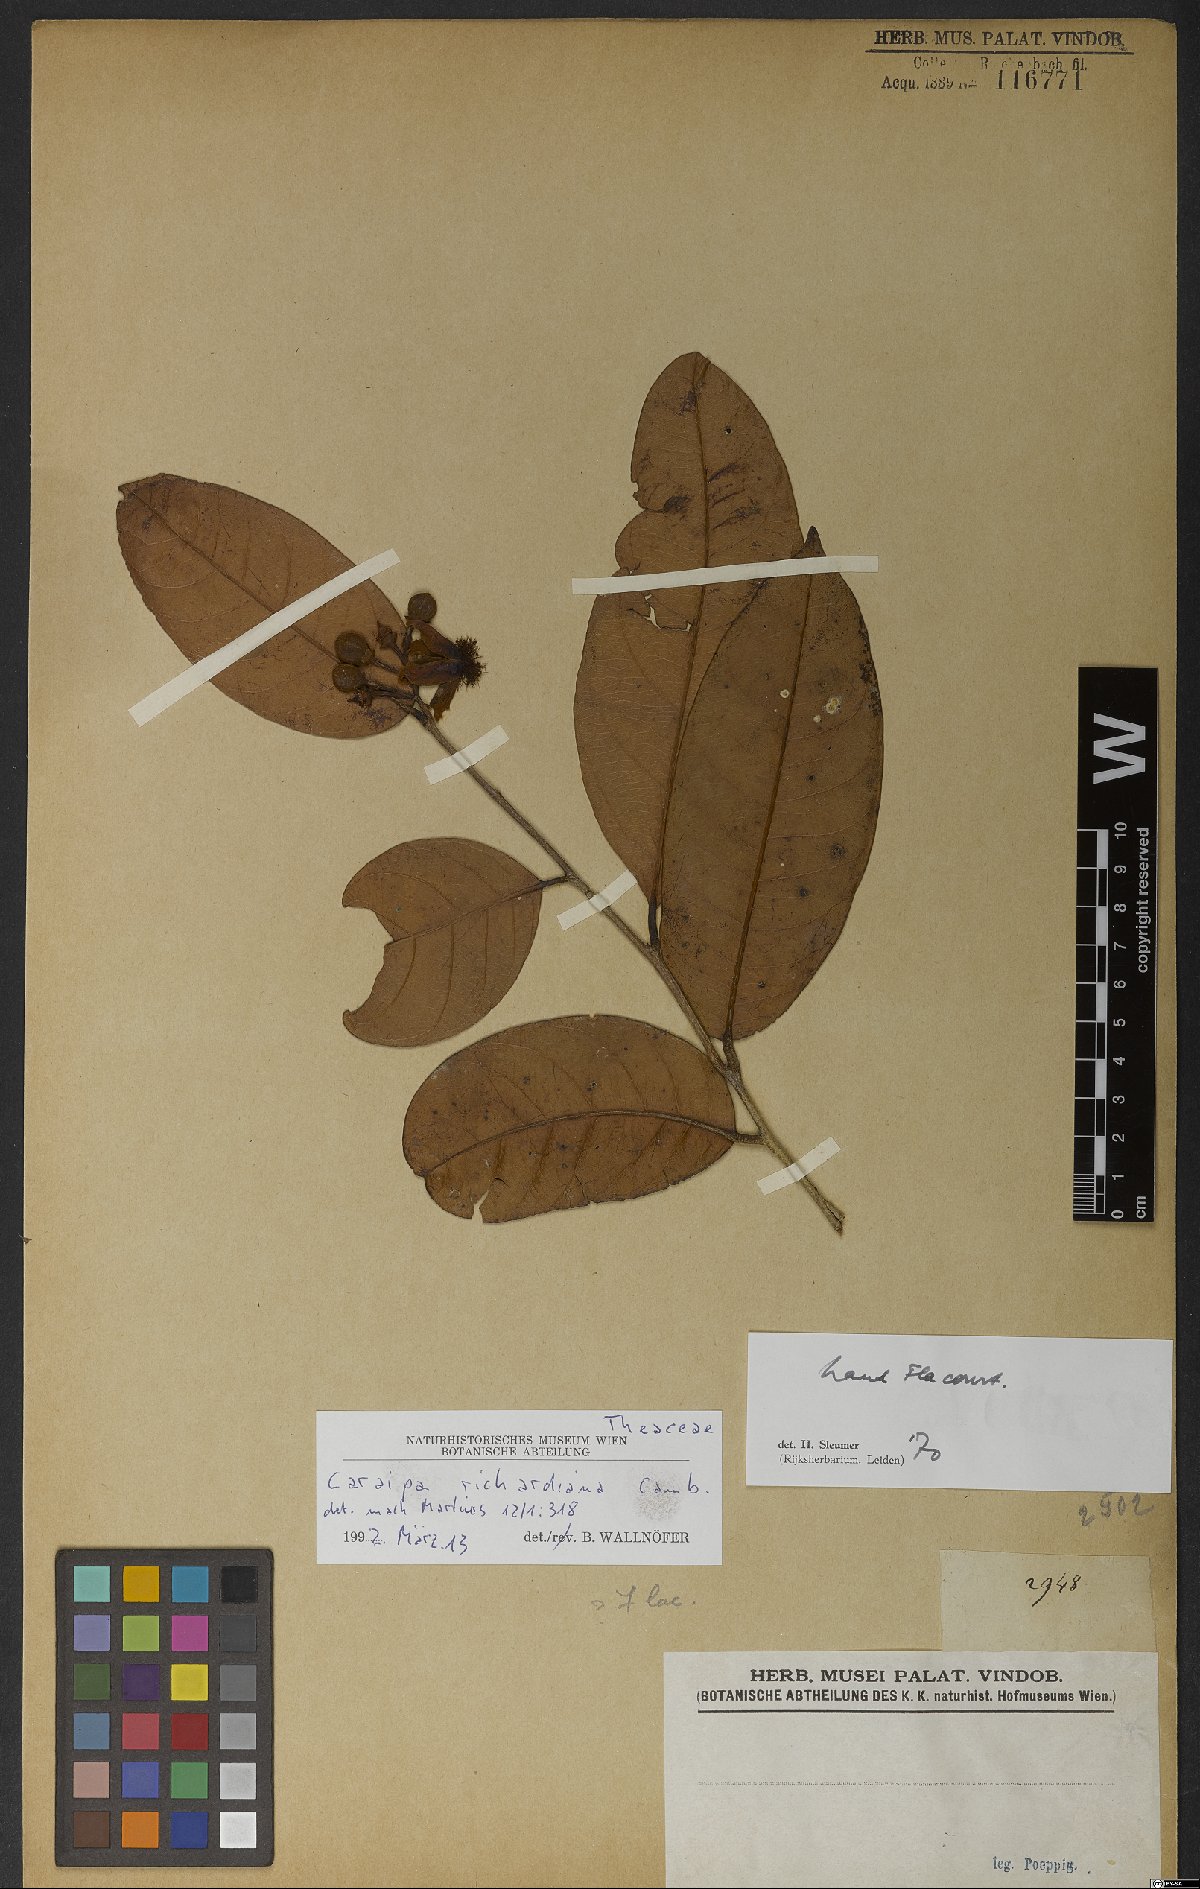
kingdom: Plantae
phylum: Tracheophyta
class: Magnoliopsida
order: Malpighiales
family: Calophyllaceae
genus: Caraipa
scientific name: Caraipa richardiana
